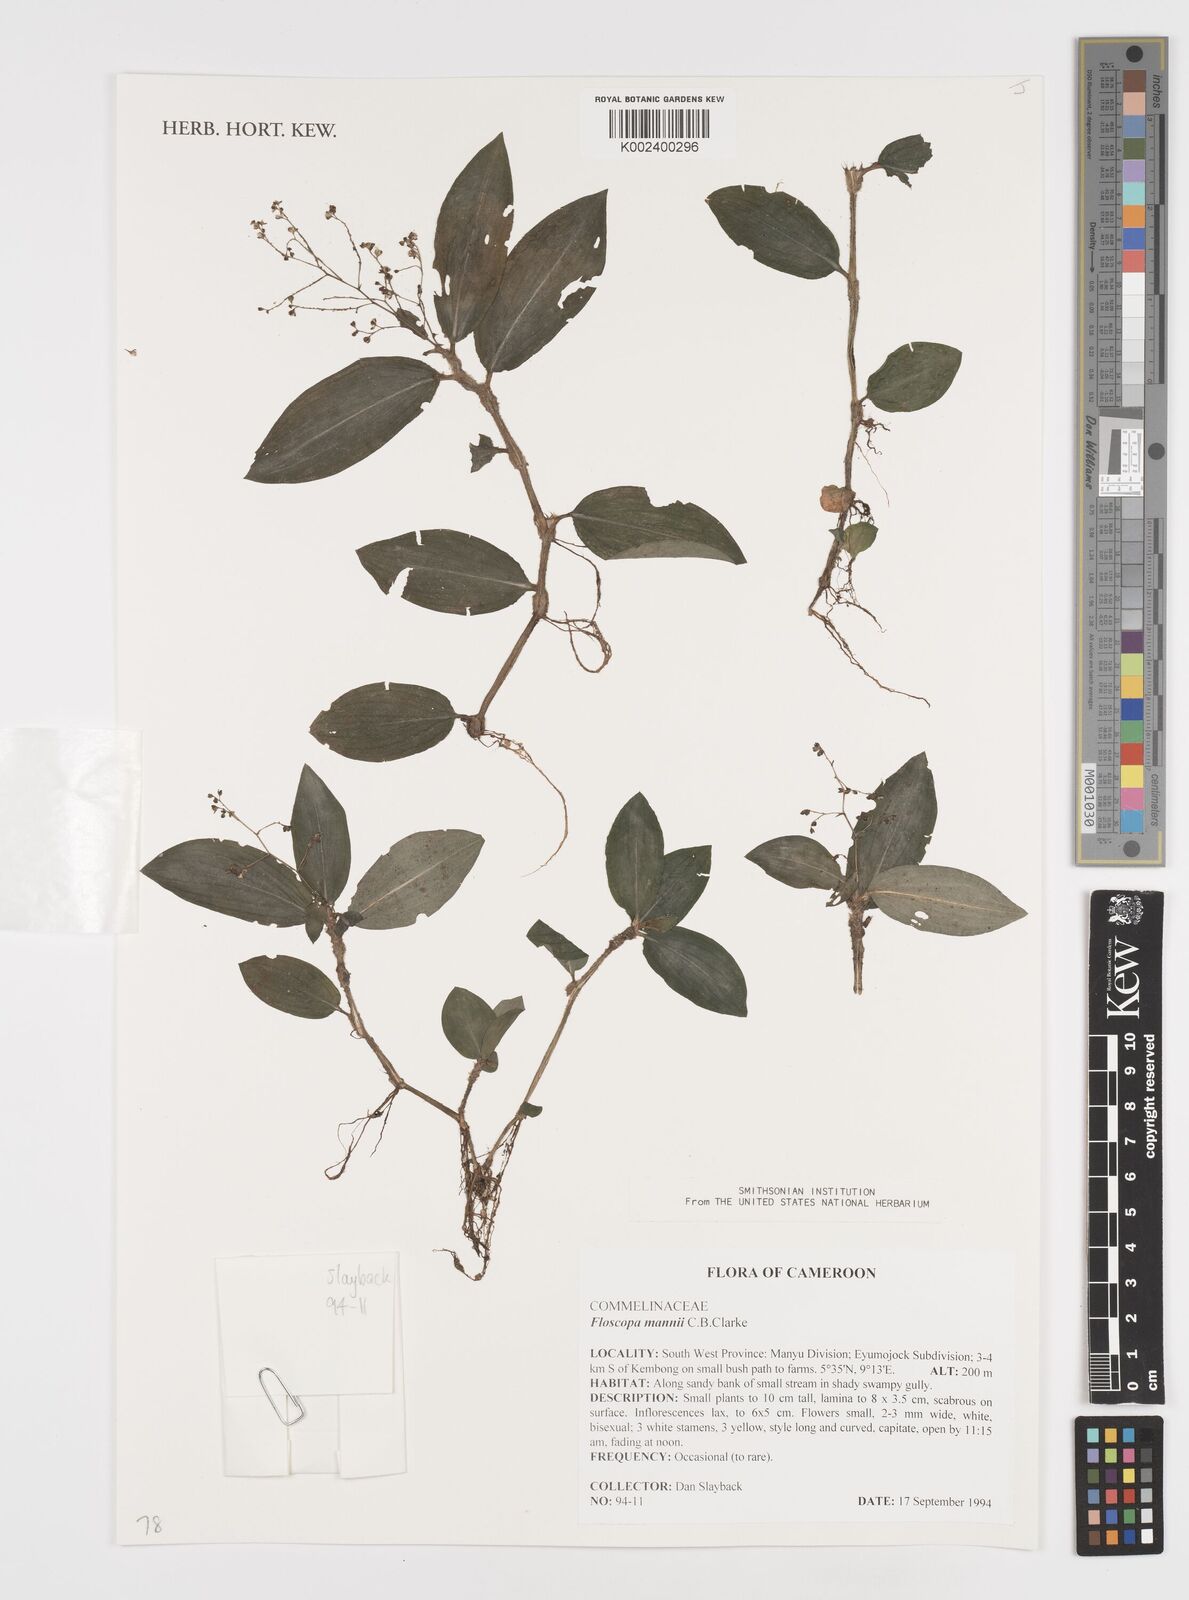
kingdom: Plantae
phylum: Tracheophyta
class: Liliopsida
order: Commelinales
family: Commelinaceae
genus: Floscopa
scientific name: Floscopa mannii
